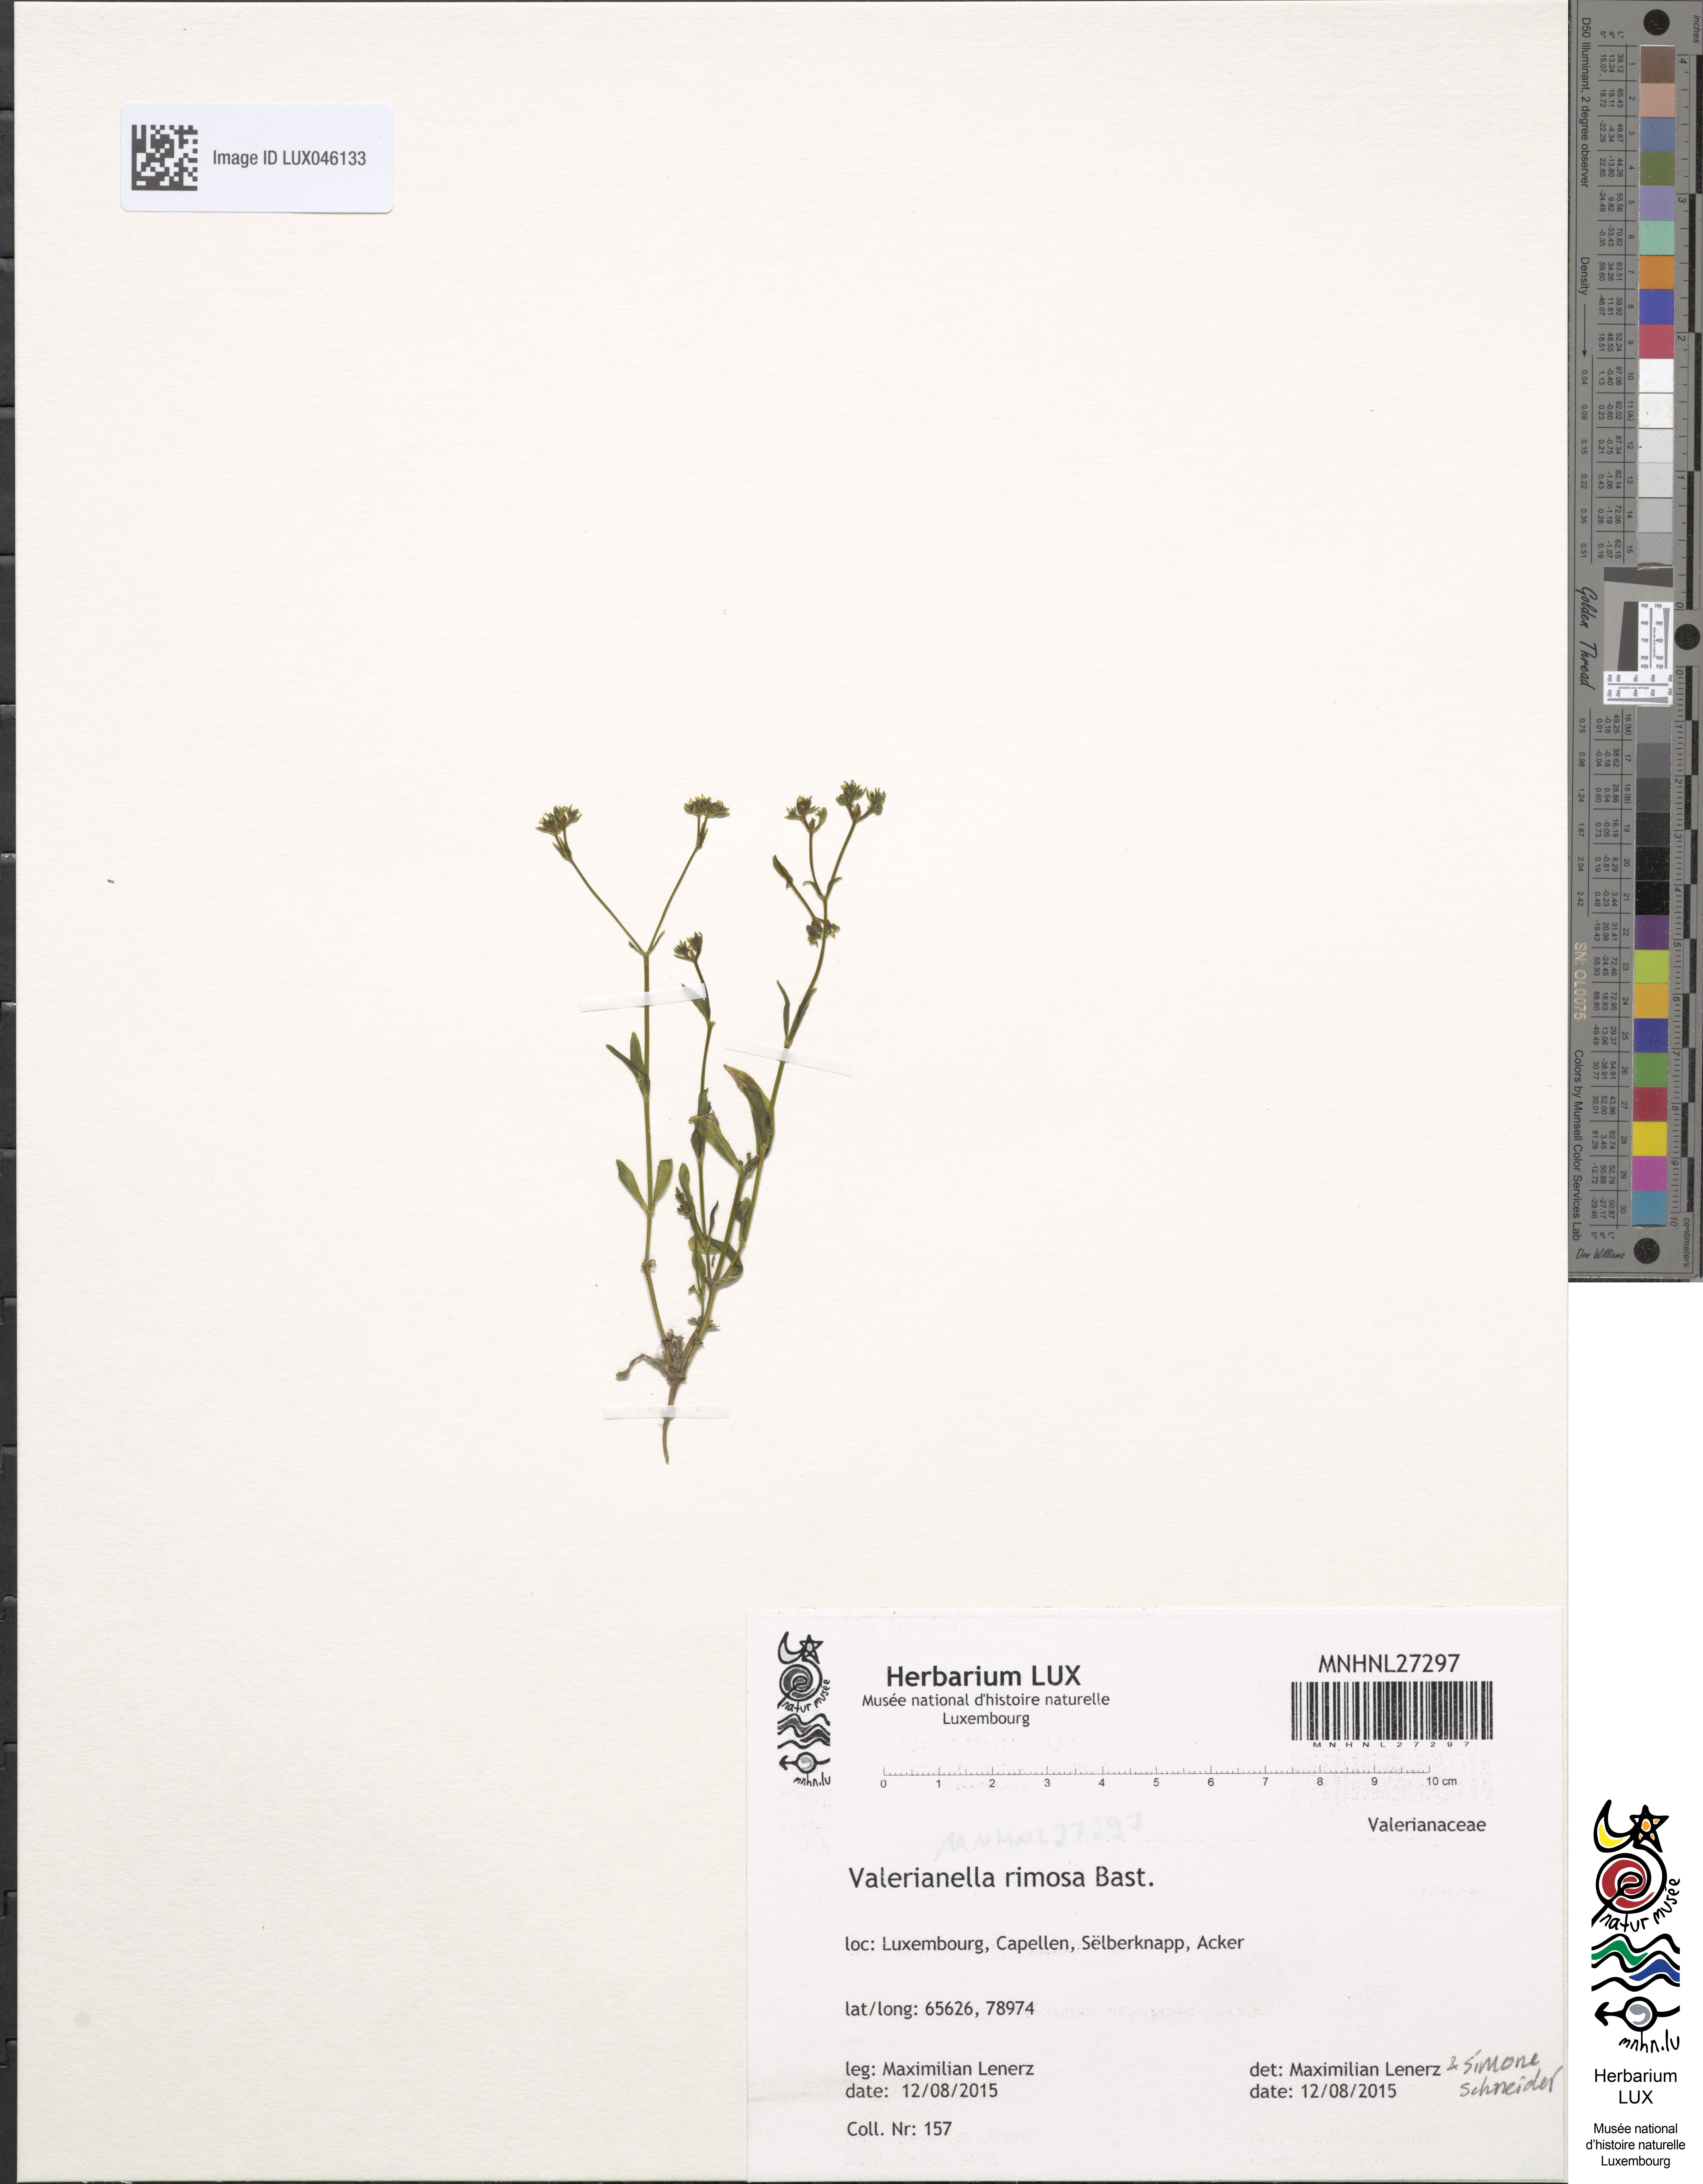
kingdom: Plantae
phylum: Tracheophyta
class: Magnoliopsida
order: Dipsacales
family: Caprifoliaceae
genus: Valerianella
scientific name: Valerianella rimosa
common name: Broad-fruited cornsalad
